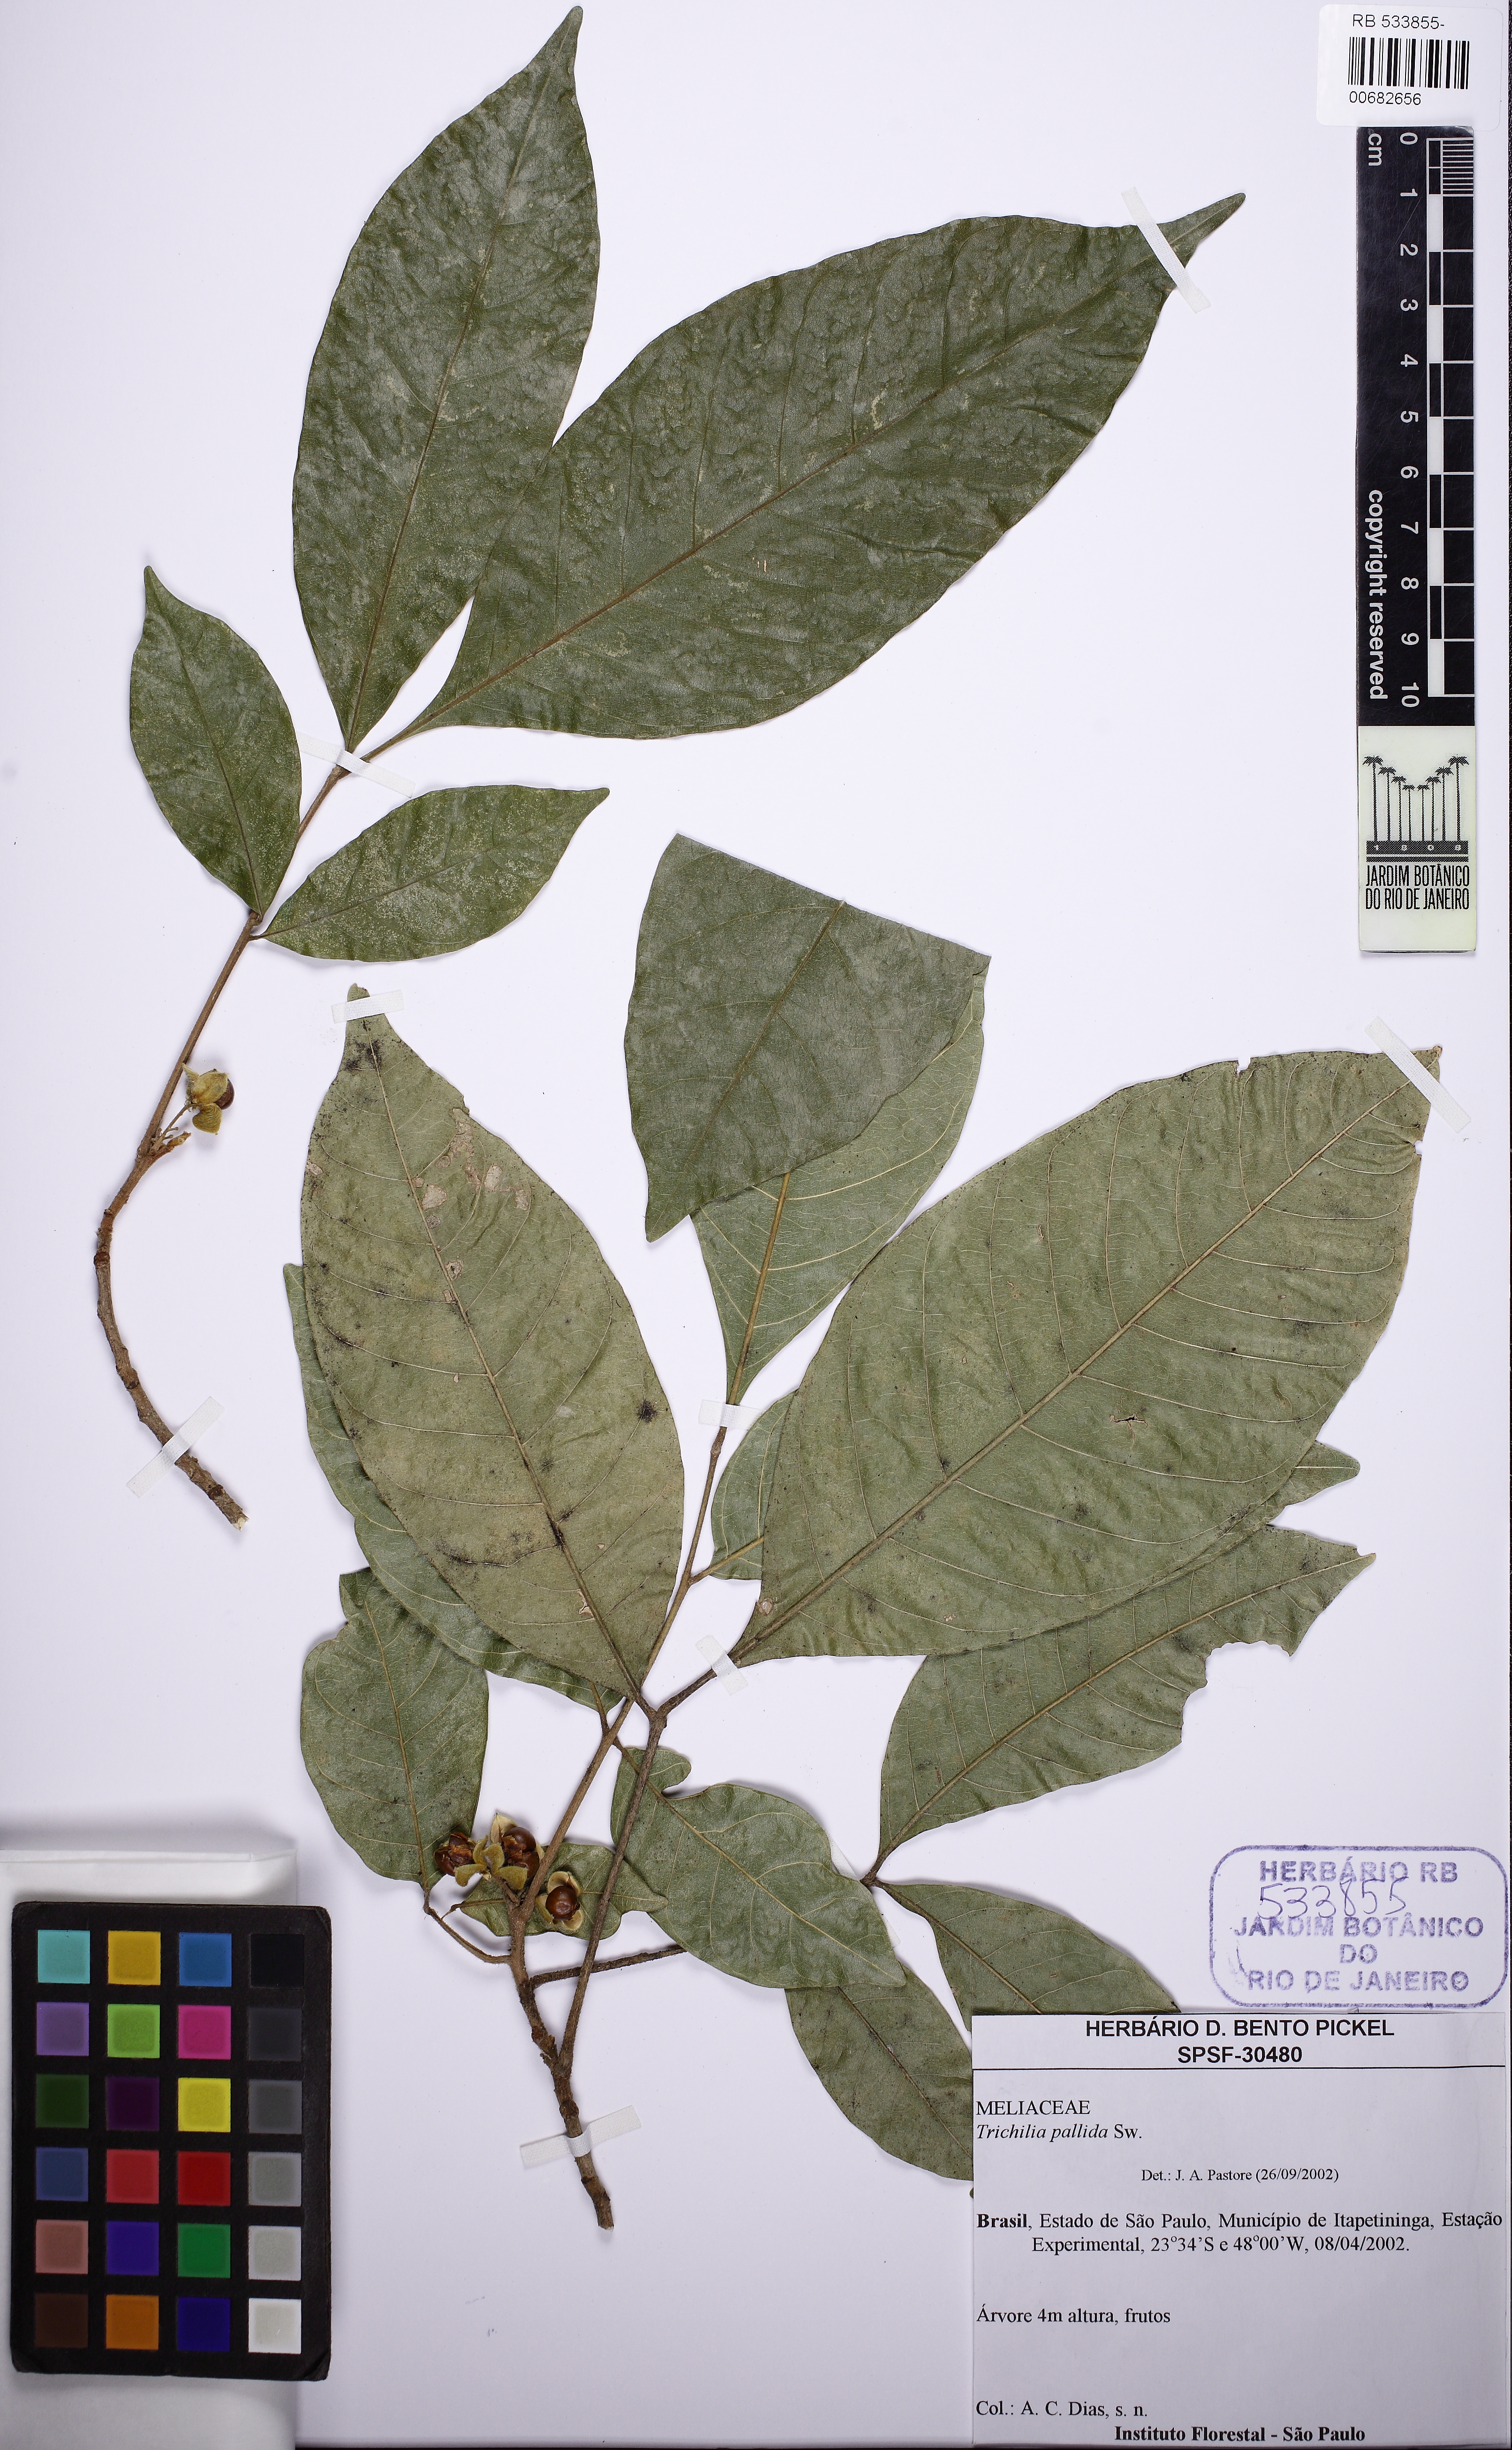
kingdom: Plantae
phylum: Tracheophyta
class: Magnoliopsida
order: Sapindales
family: Meliaceae
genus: Trichilia
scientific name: Trichilia pallida
